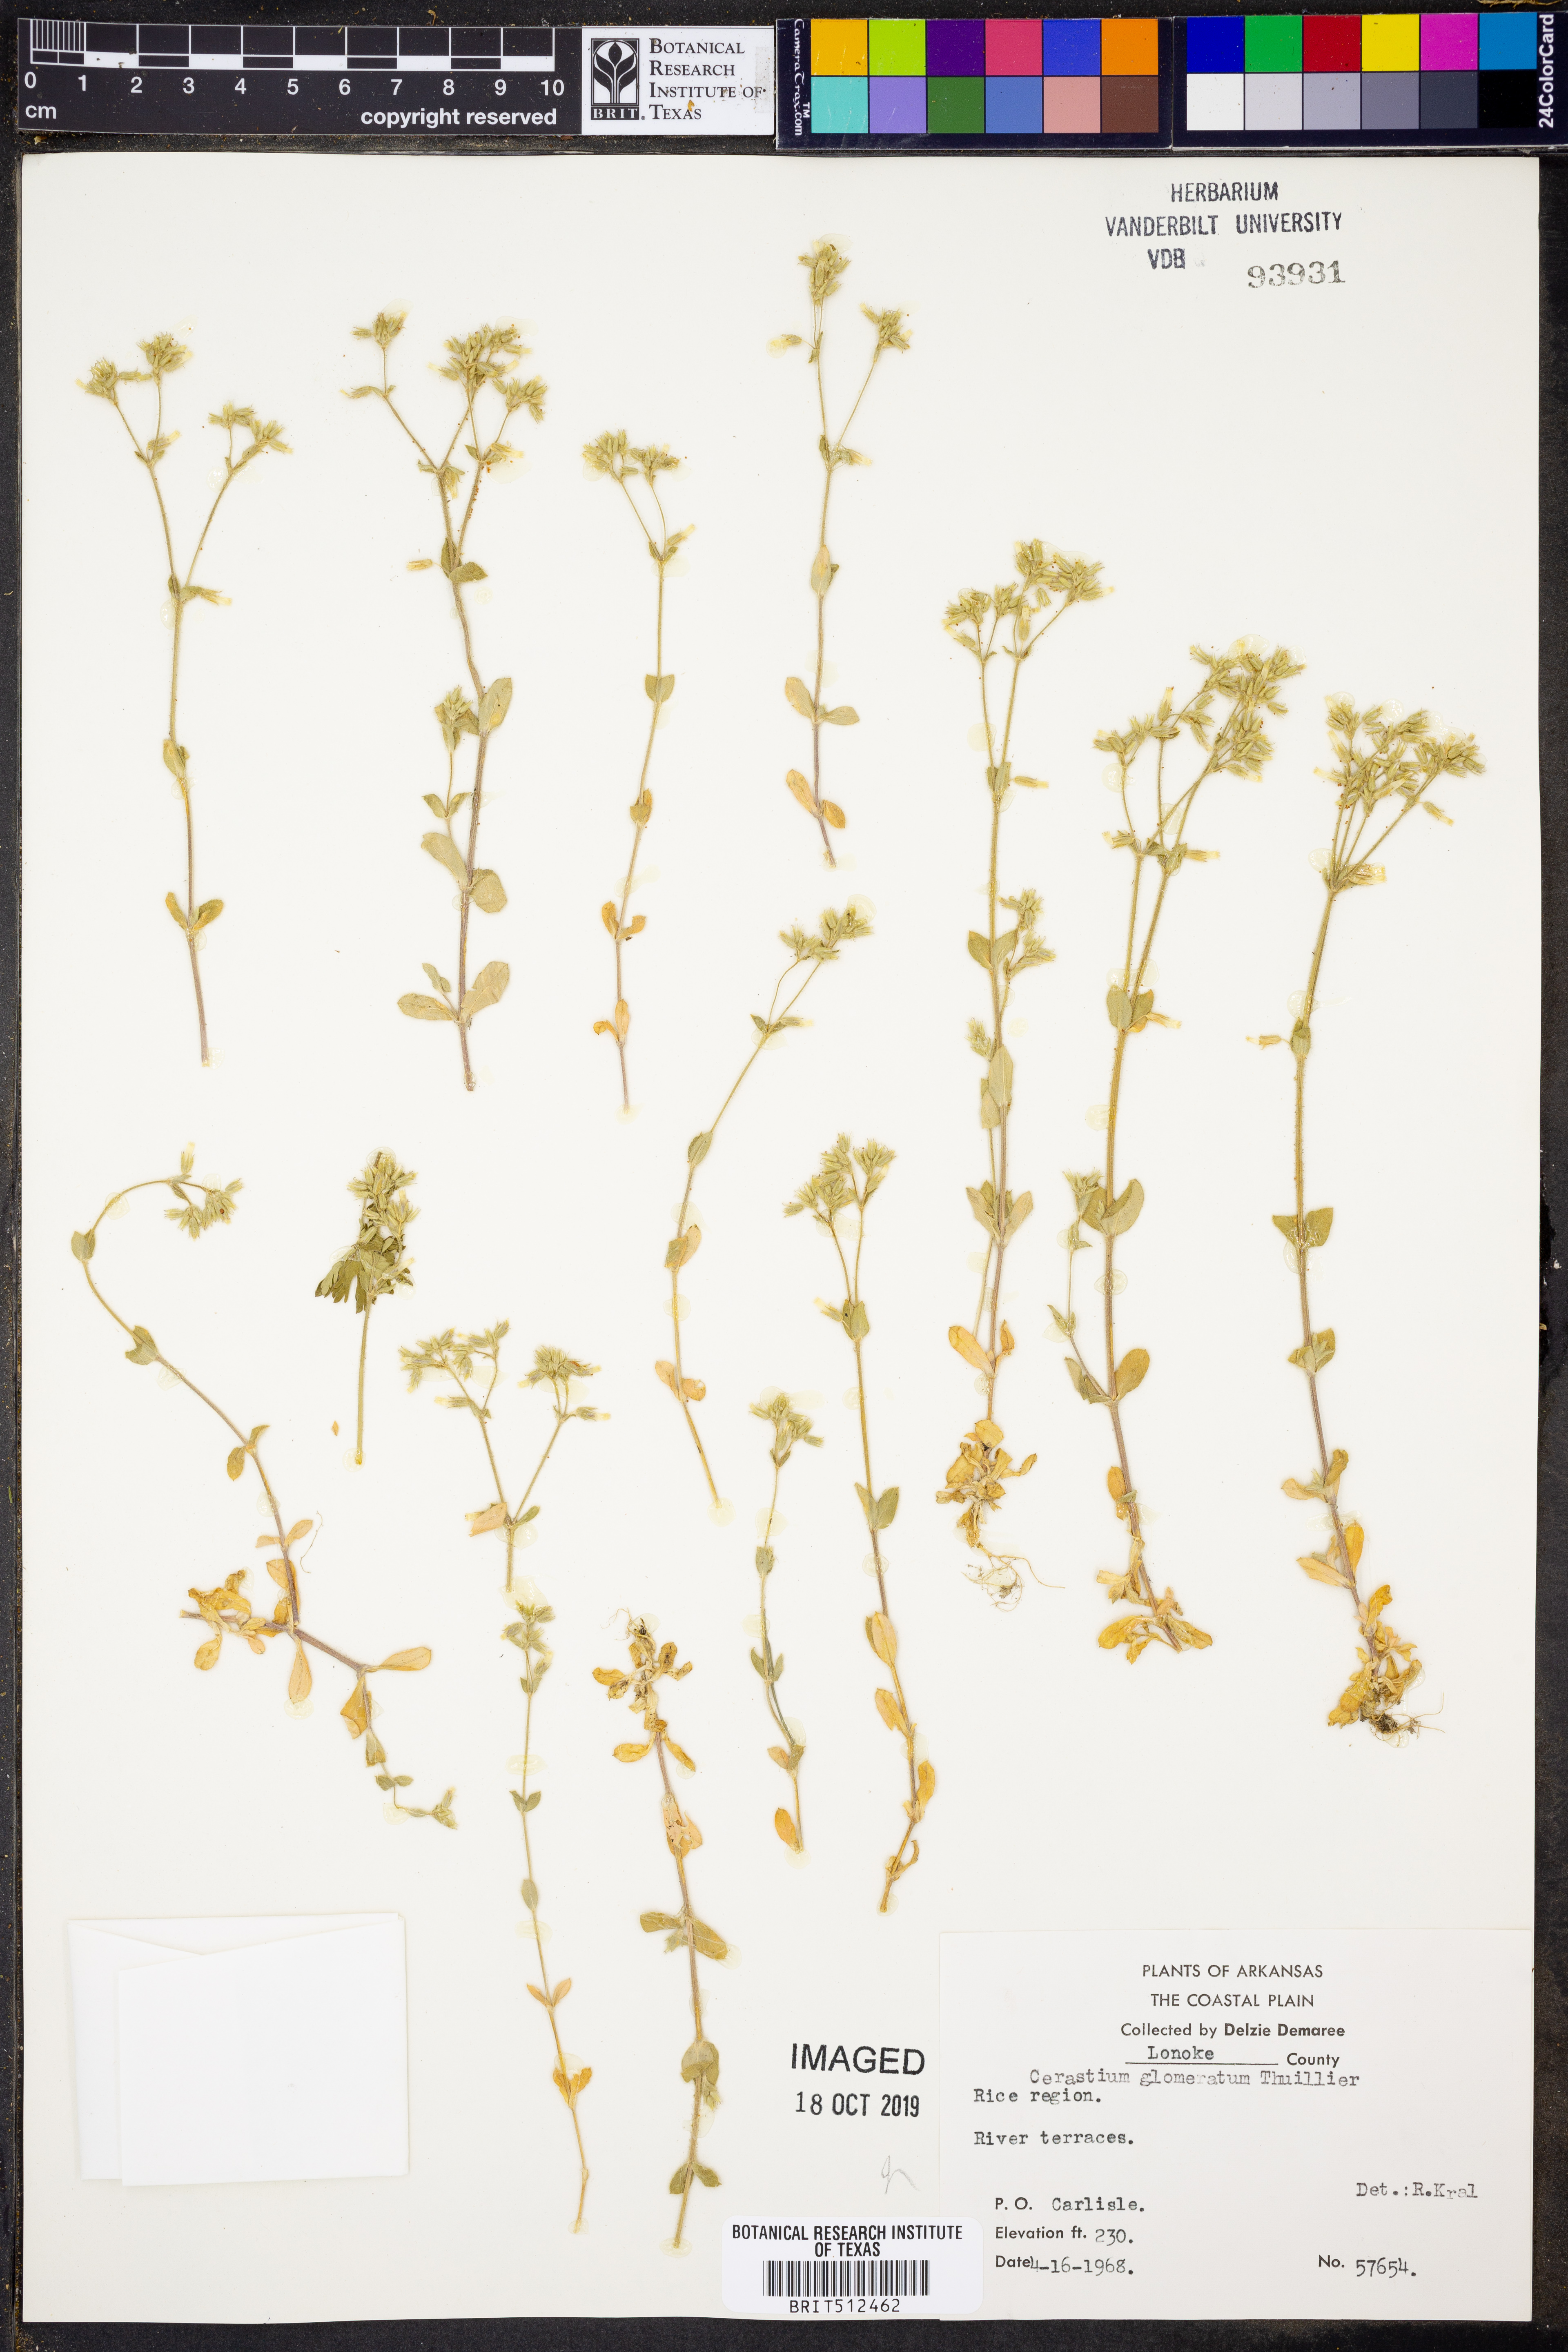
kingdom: Plantae
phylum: Tracheophyta
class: Magnoliopsida
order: Caryophyllales
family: Caryophyllaceae
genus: Cerastium
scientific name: Cerastium glomeratum
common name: Sticky chickweed
